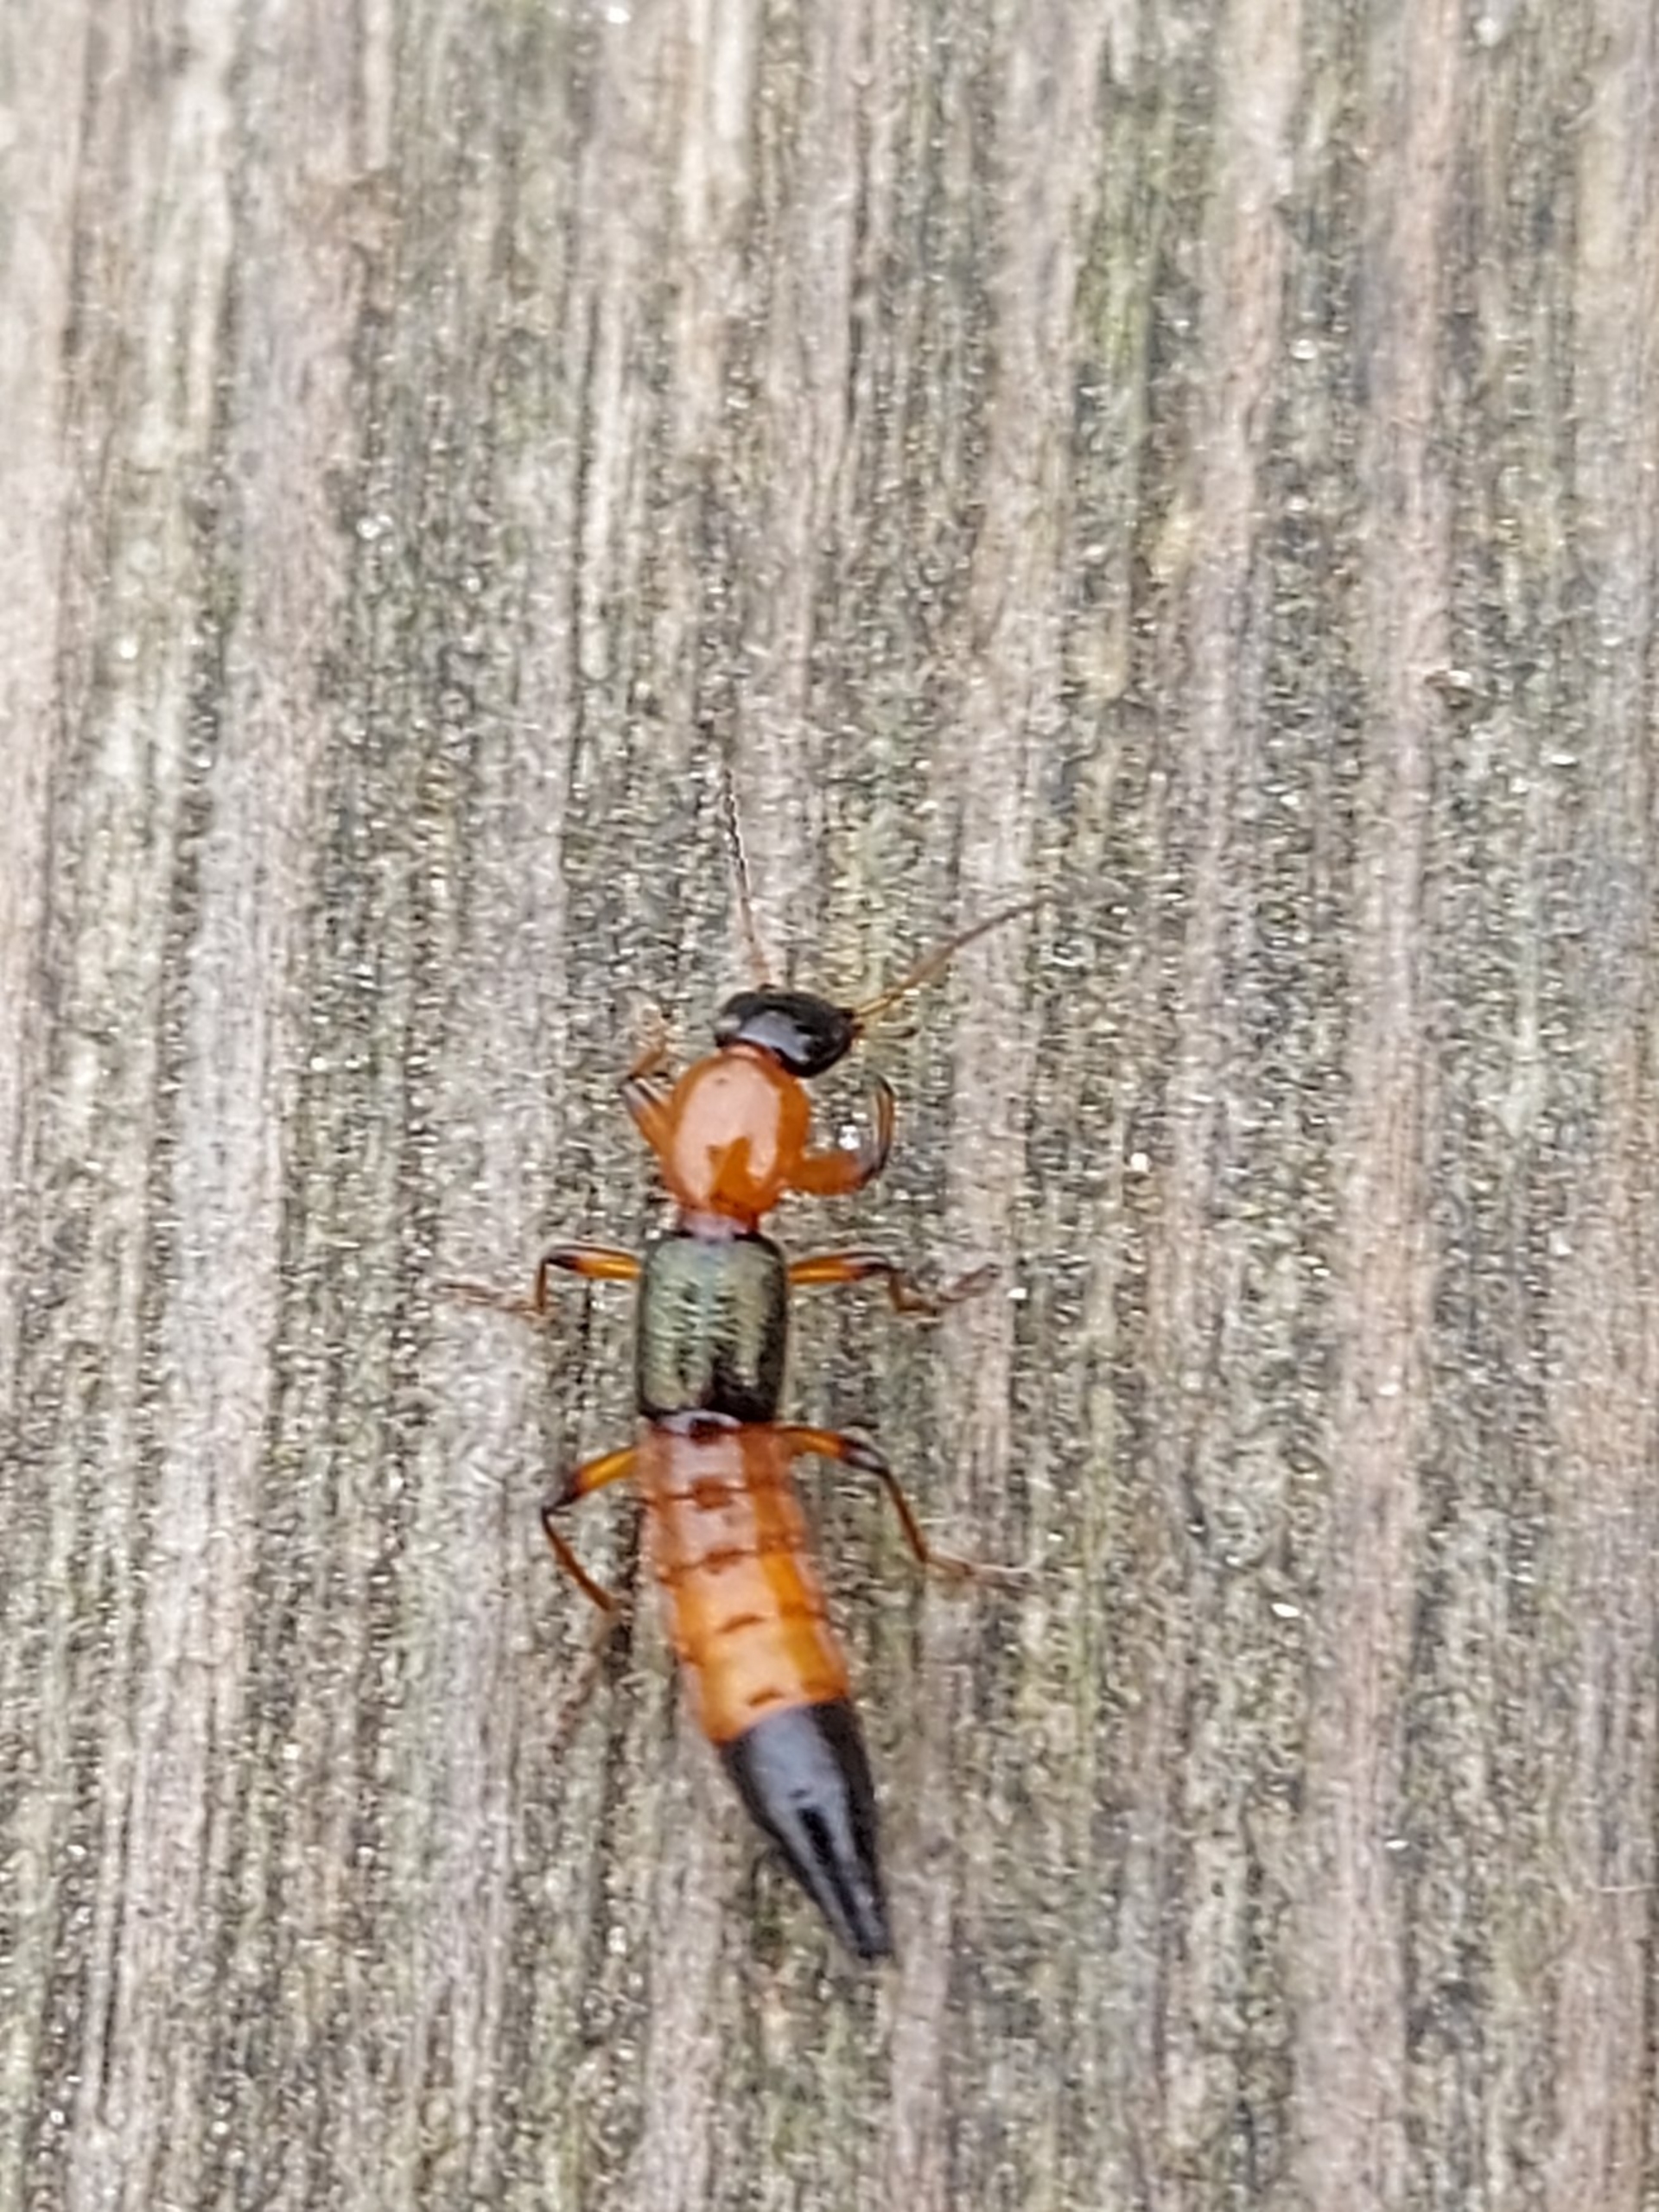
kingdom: Animalia
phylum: Arthropoda
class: Insecta
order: Coleoptera
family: Staphylinidae
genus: Paederus
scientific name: Paederus riparius
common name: Giftig rovbille
